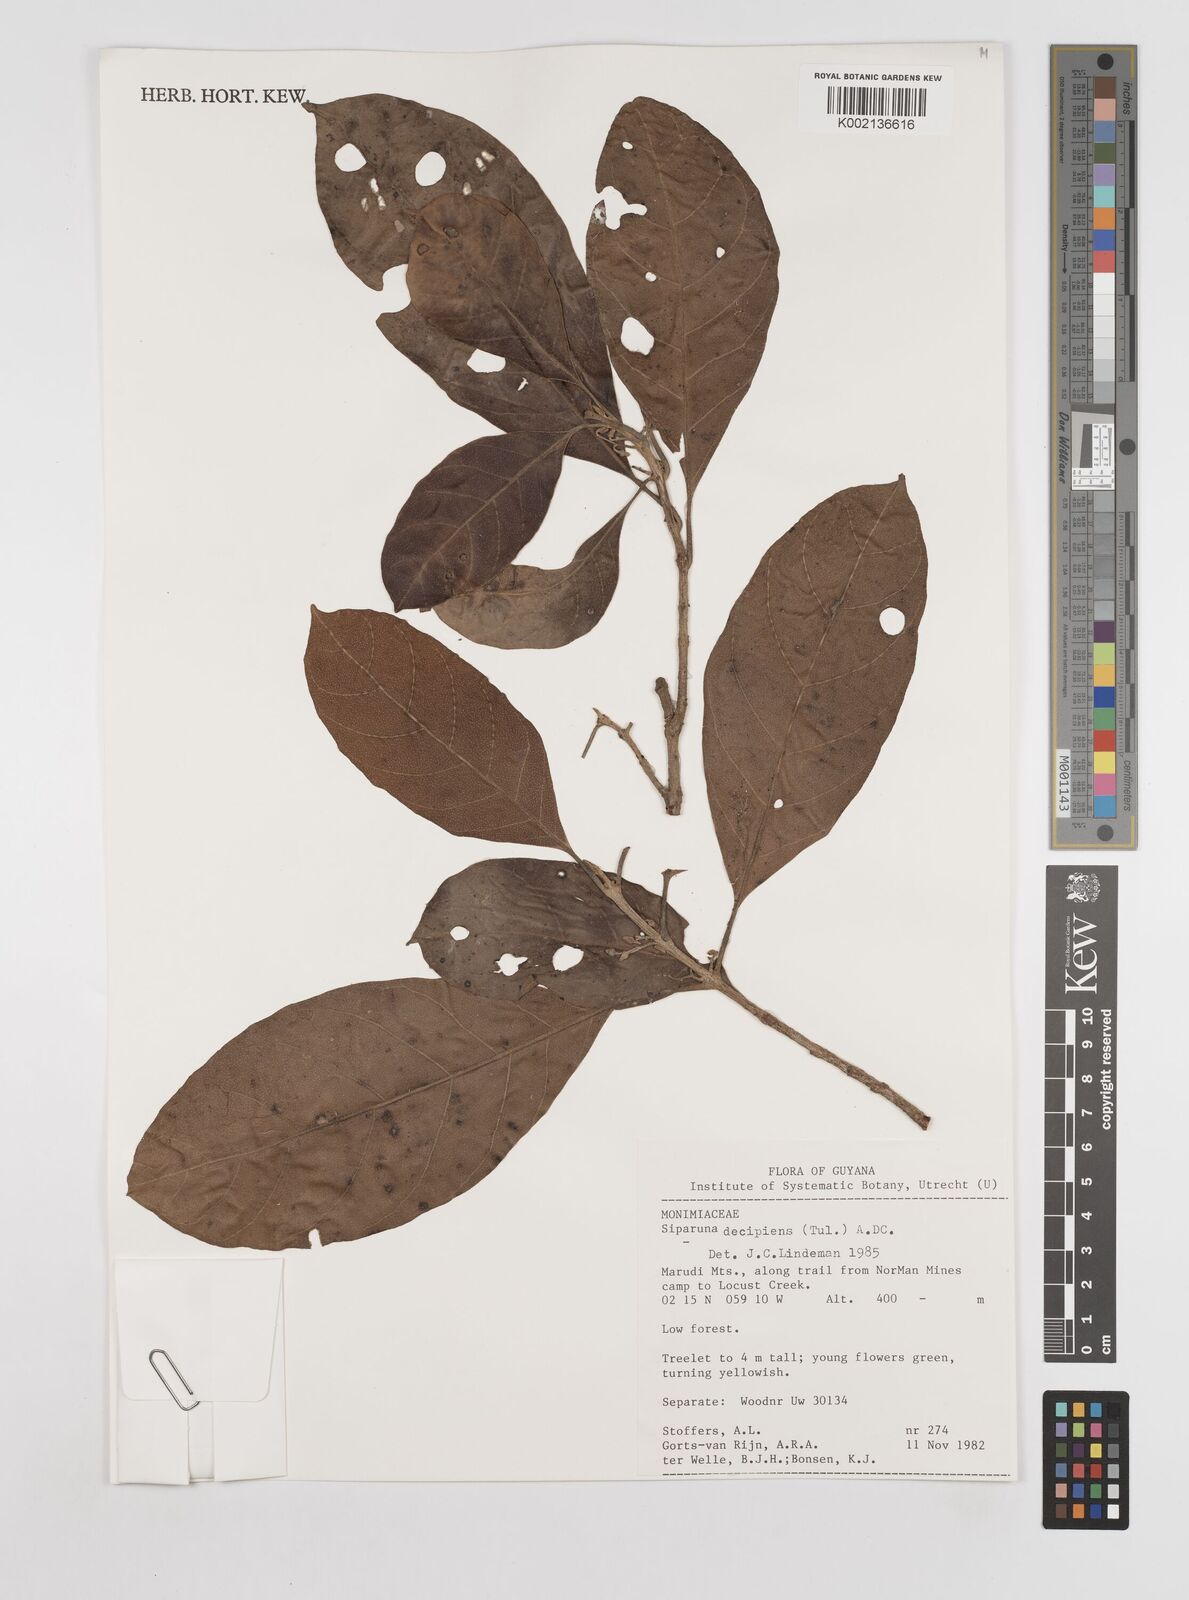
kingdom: Plantae
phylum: Tracheophyta
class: Magnoliopsida
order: Laurales
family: Siparunaceae
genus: Siparuna
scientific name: Siparuna decipiens
